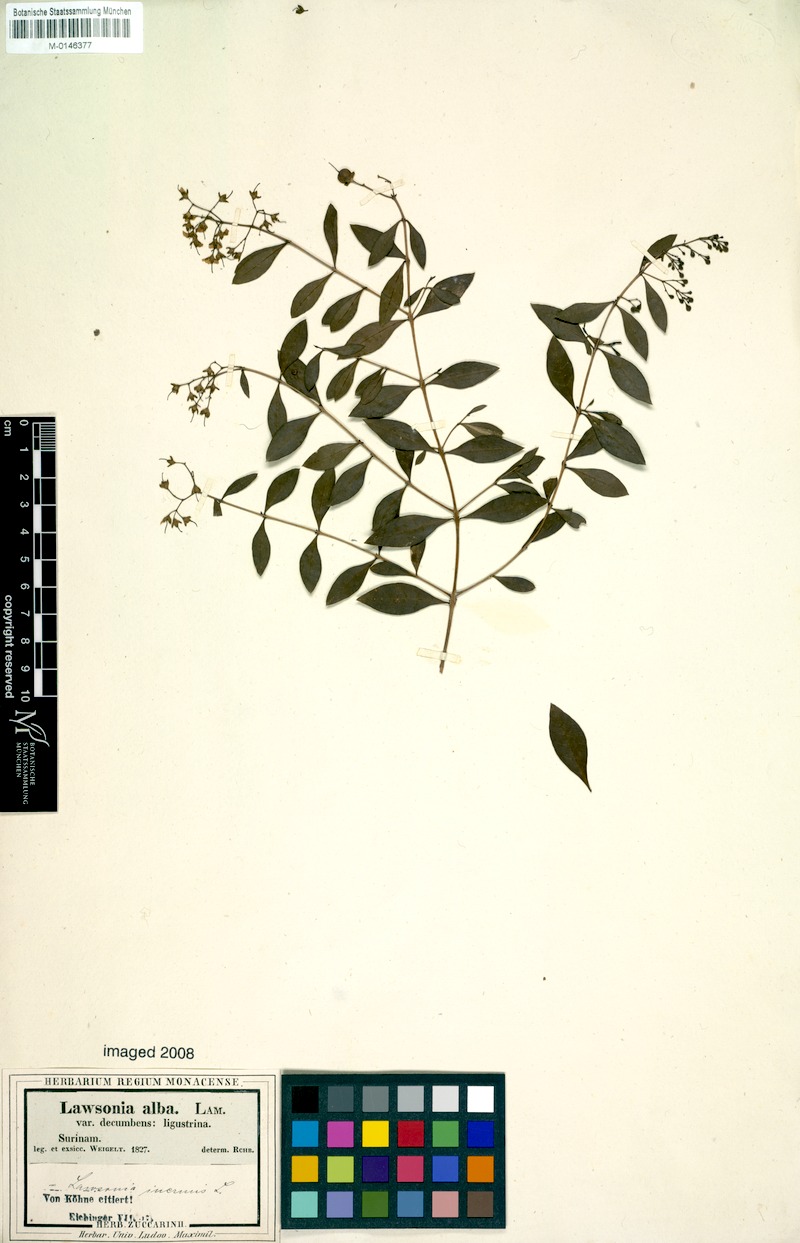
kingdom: Plantae
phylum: Tracheophyta
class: Magnoliopsida
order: Myrtales
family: Lythraceae
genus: Lawsonia
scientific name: Lawsonia inermis
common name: Henna
